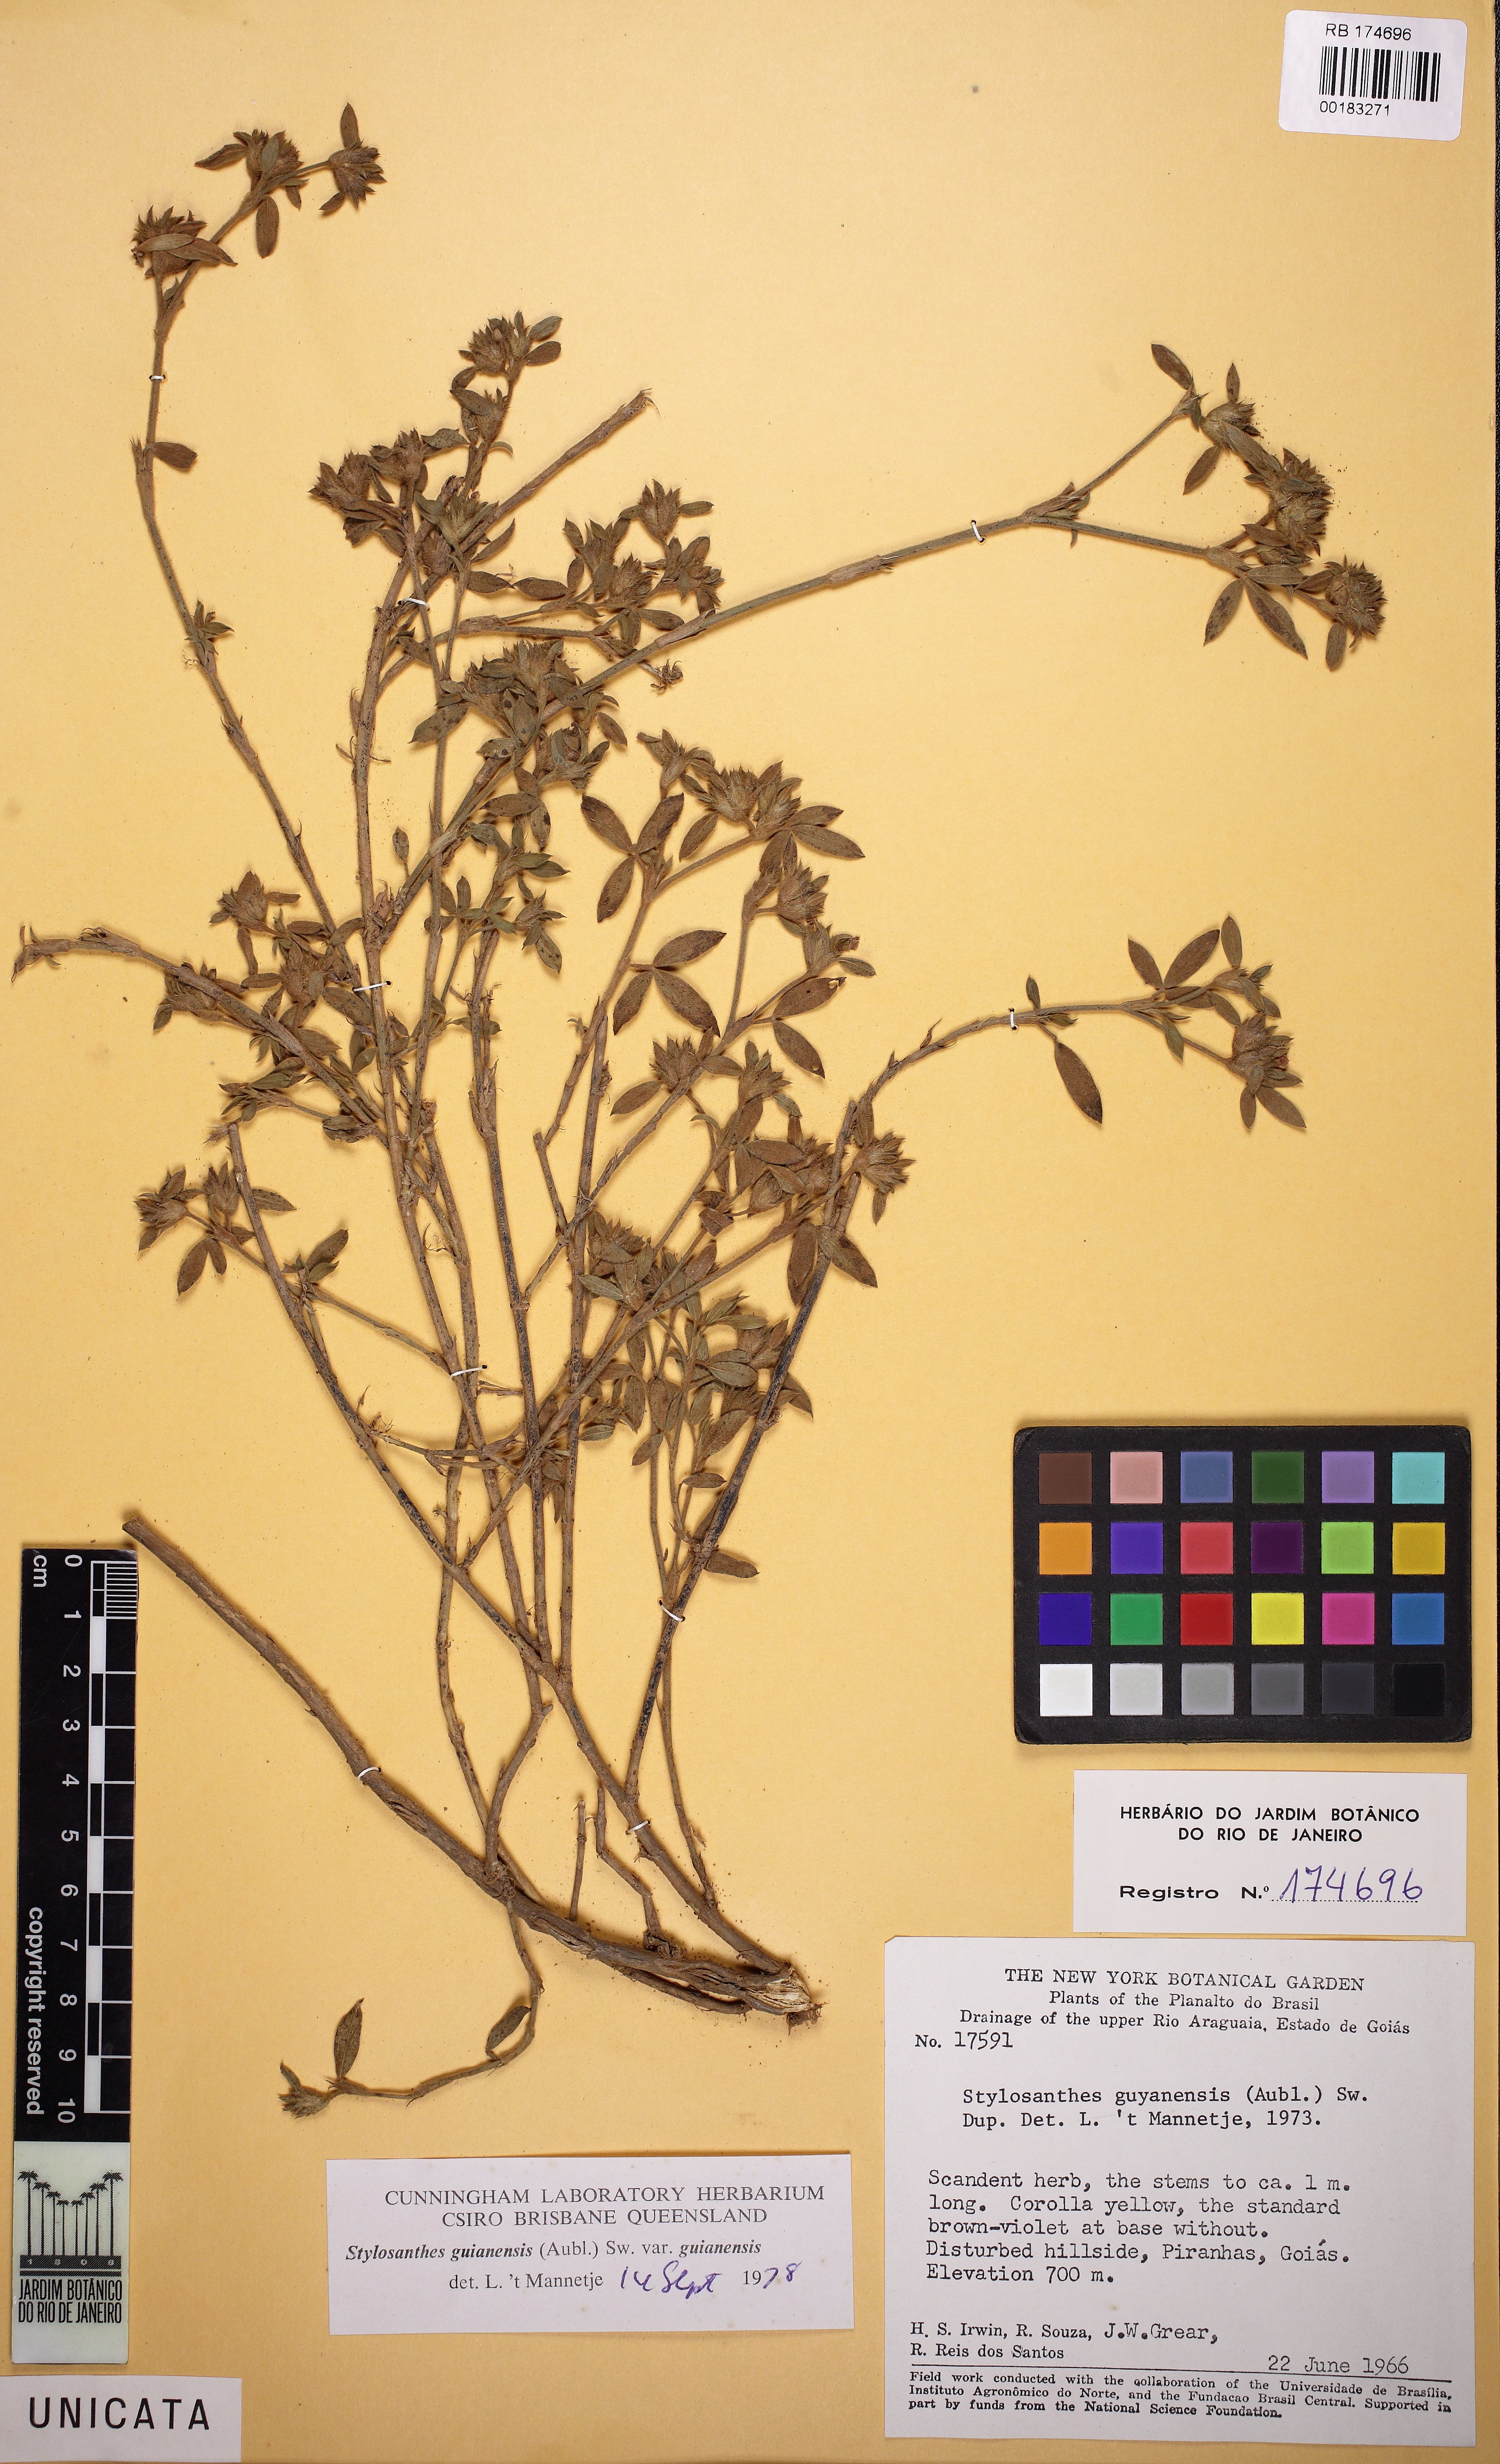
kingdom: Plantae
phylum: Tracheophyta
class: Magnoliopsida
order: Fabales
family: Fabaceae
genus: Stylosanthes
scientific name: Stylosanthes guianensis
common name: Pencil flower
